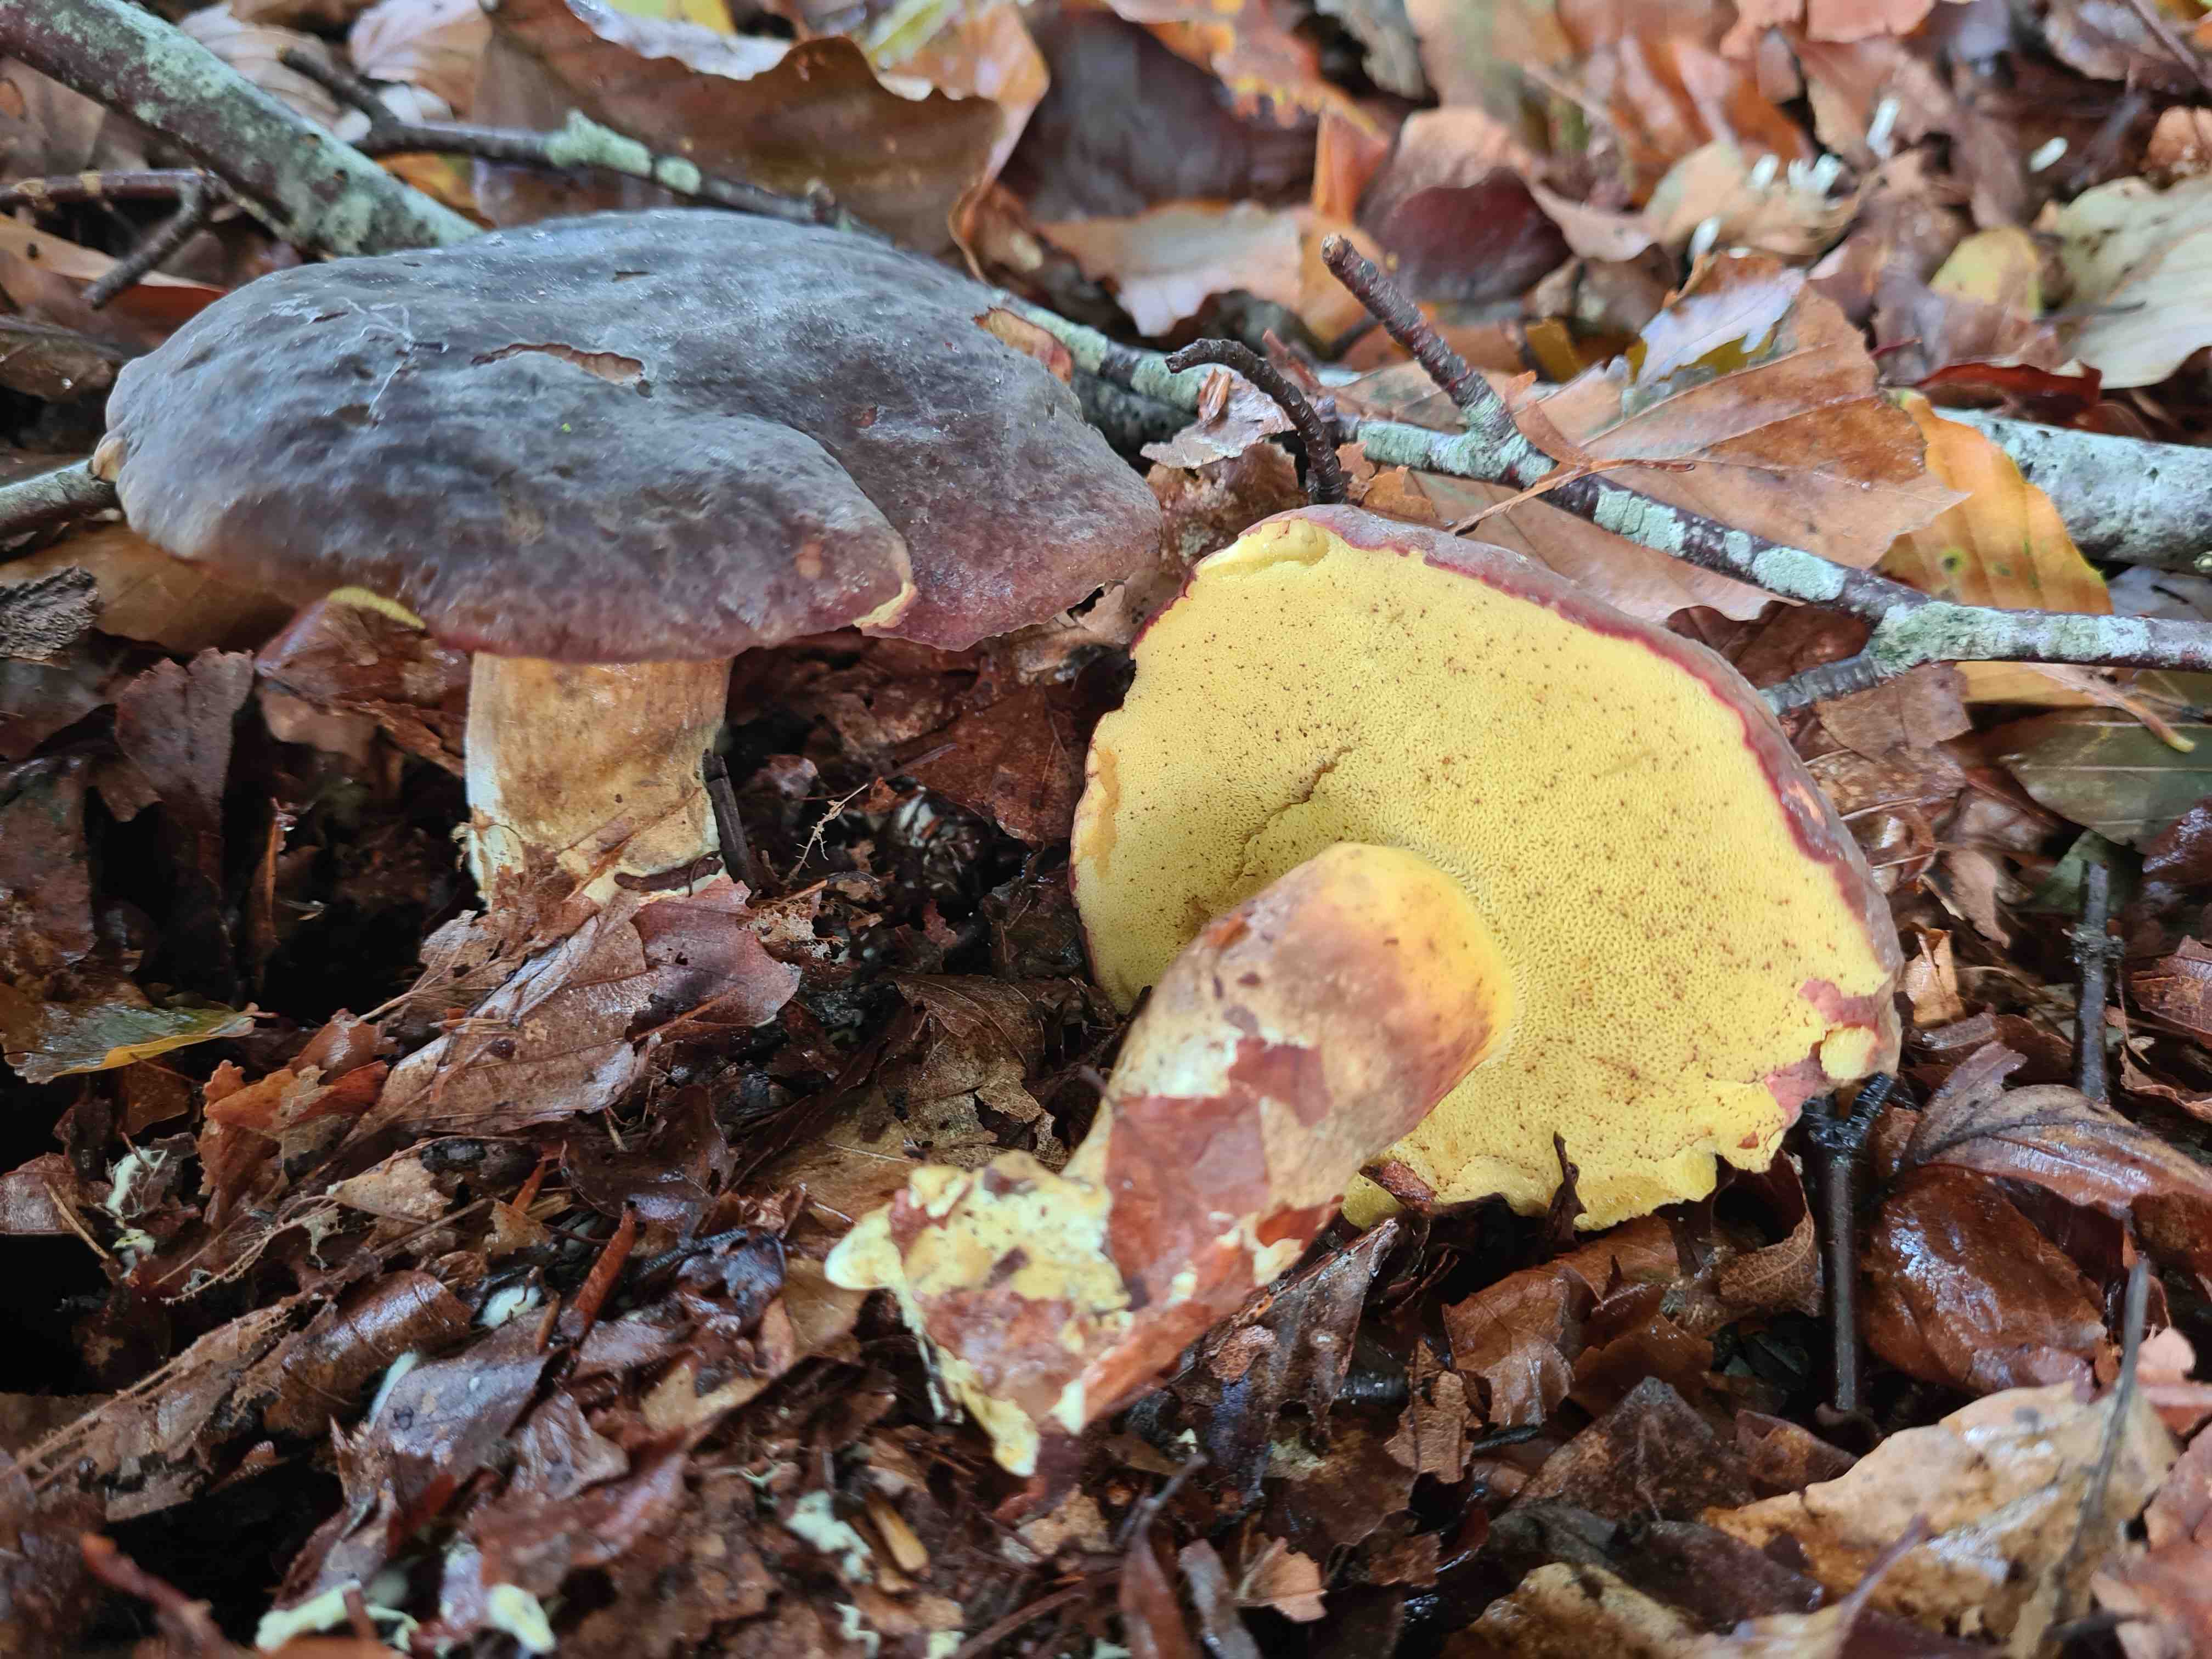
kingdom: Fungi
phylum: Basidiomycota
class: Agaricomycetes
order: Boletales
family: Boletaceae
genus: Xerocomellus
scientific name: Xerocomellus pruinatus
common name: dugget rørhat
